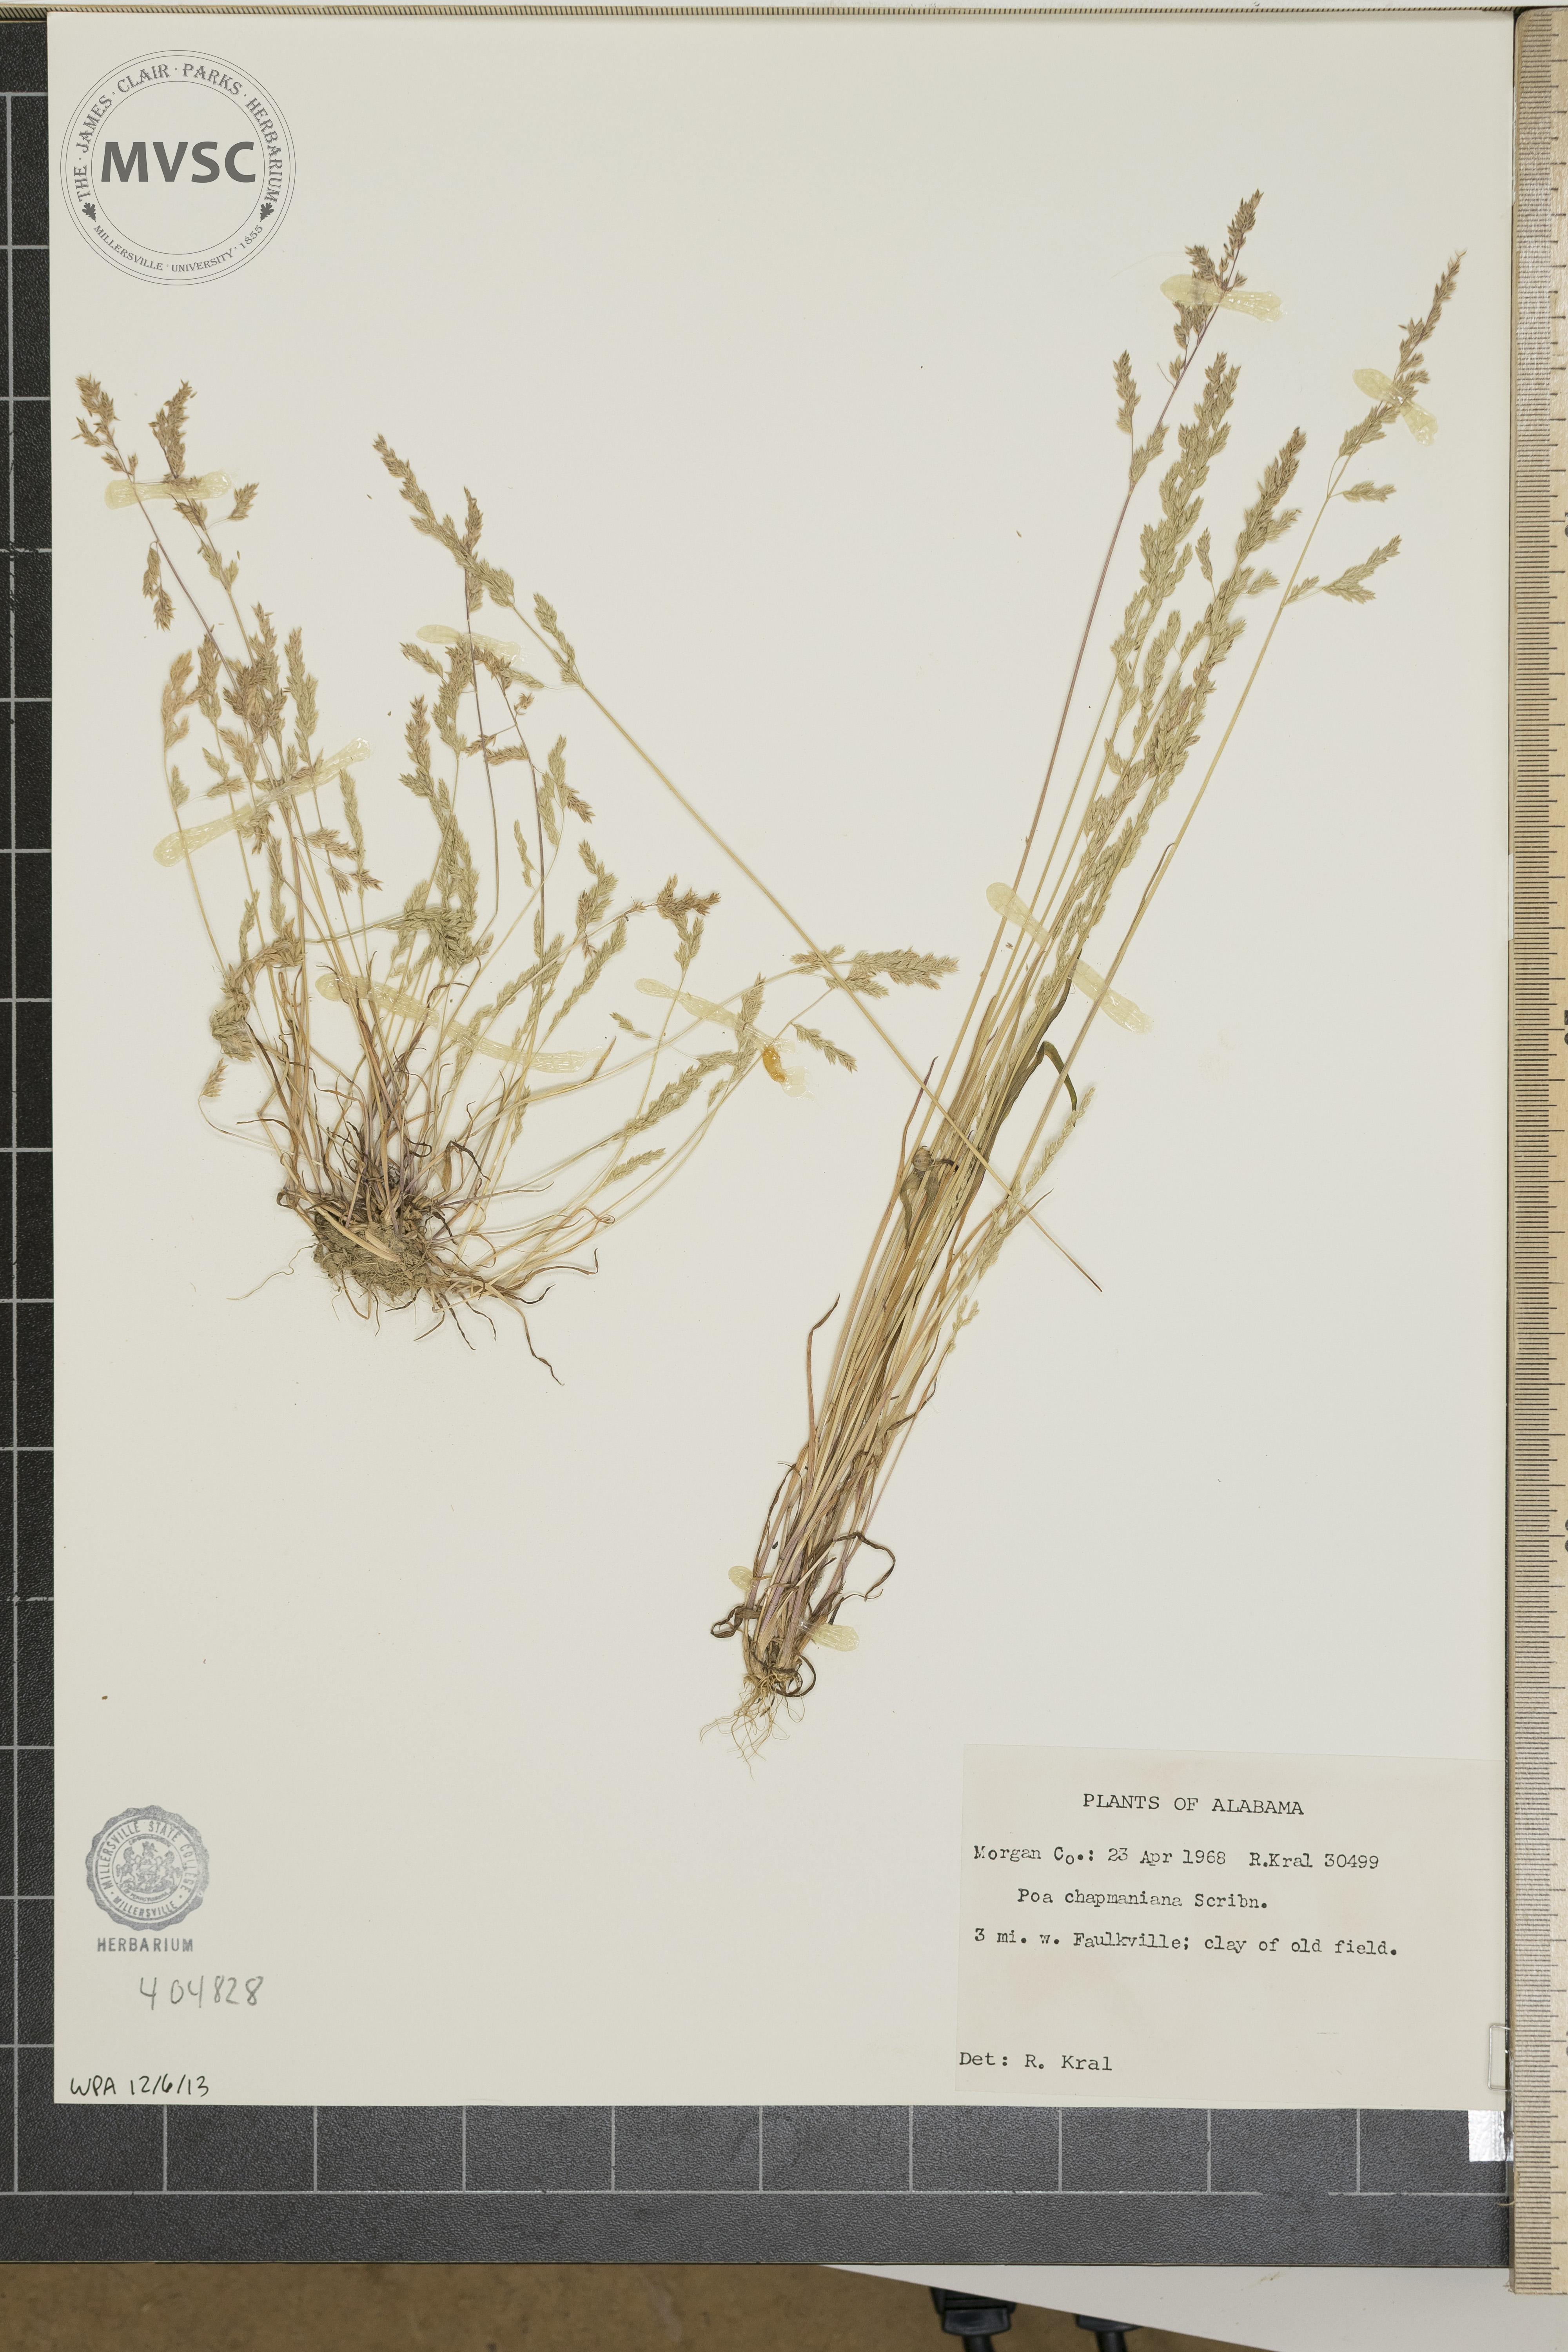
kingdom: Plantae
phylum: Tracheophyta
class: Liliopsida
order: Poales
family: Poaceae
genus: Poa
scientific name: Poa chapmaniana
